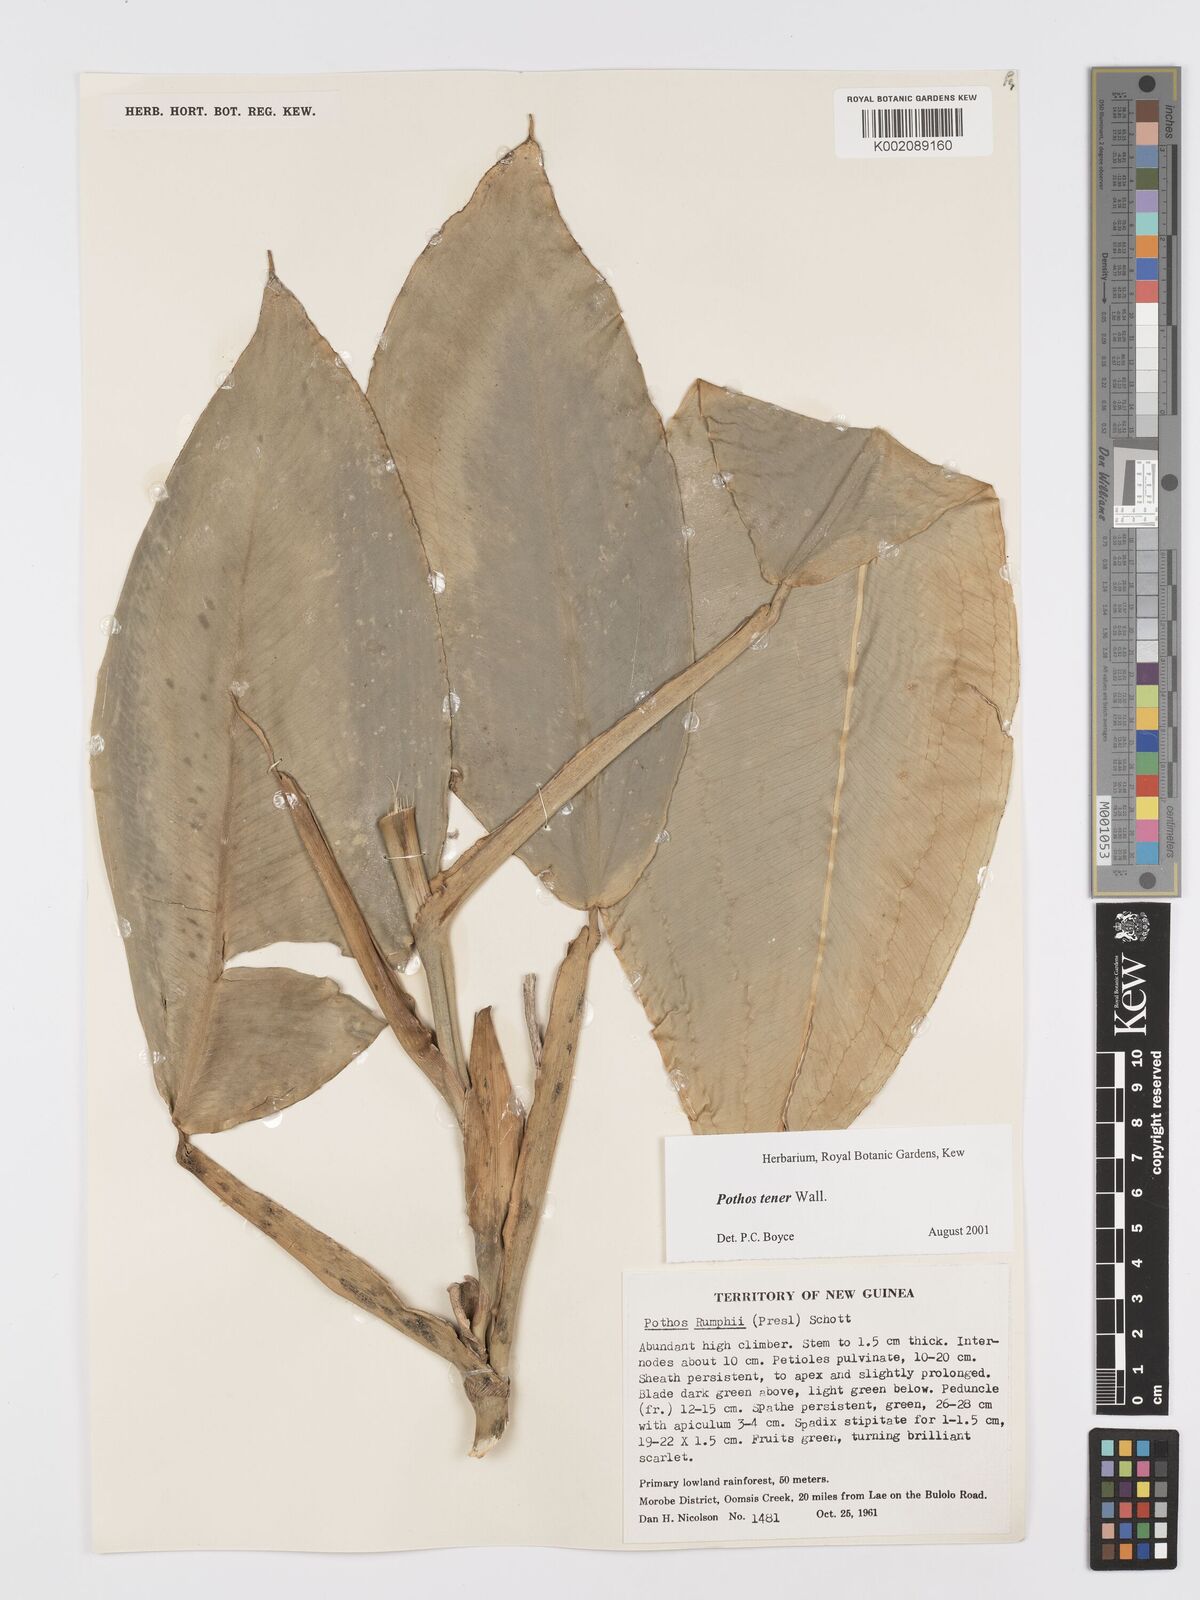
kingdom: Plantae
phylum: Tracheophyta
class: Liliopsida
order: Alismatales
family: Araceae
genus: Pothos
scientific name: Pothos tener
